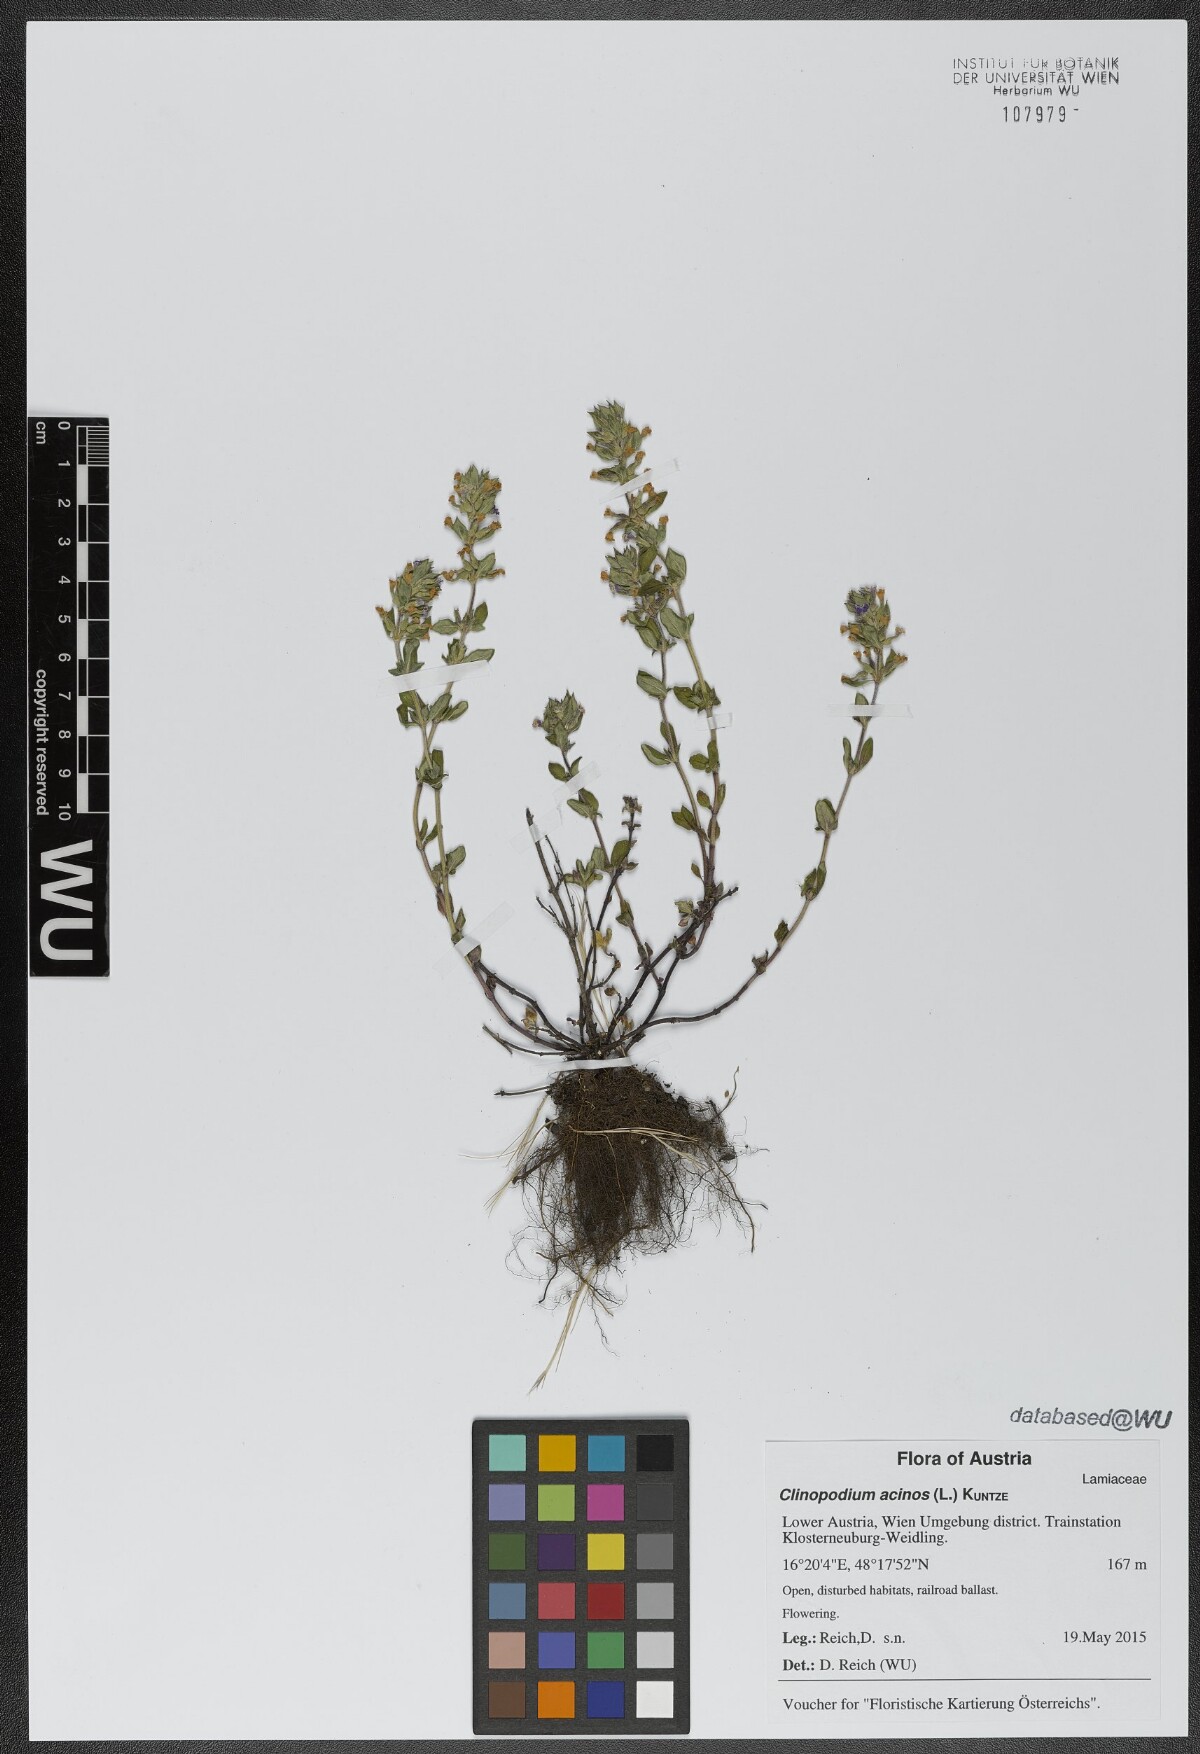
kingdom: Plantae
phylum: Tracheophyta
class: Magnoliopsida
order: Lamiales
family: Lamiaceae
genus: Clinopodium
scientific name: Clinopodium acinos
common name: Basil thyme
